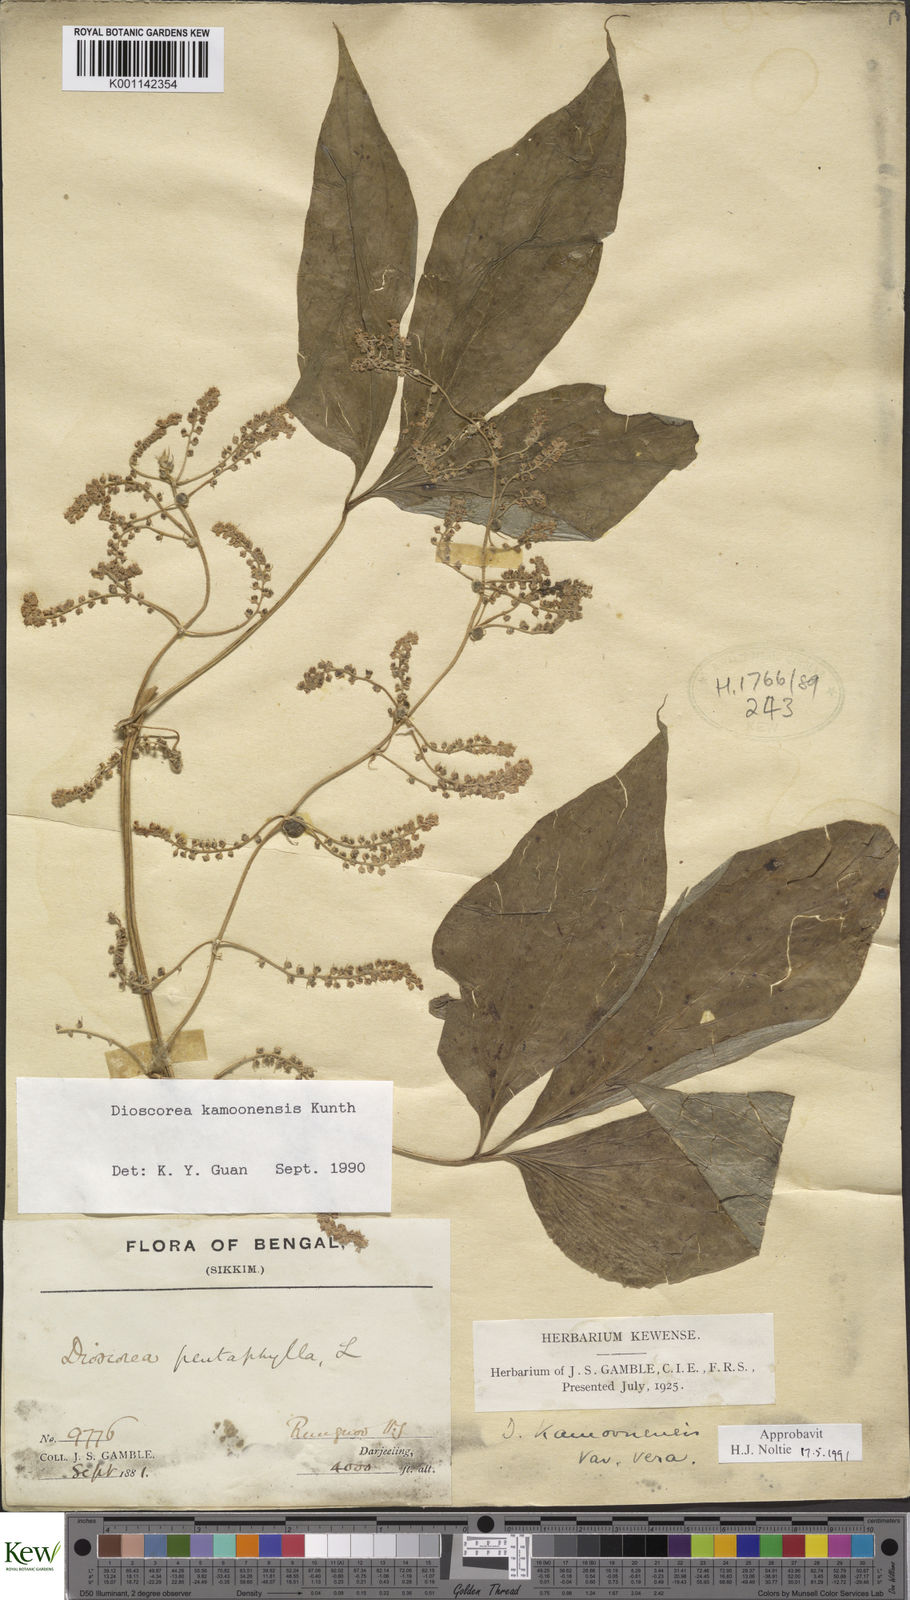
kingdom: Plantae
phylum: Tracheophyta
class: Liliopsida
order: Dioscoreales
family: Dioscoreaceae
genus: Dioscorea
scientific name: Dioscorea kamoonensis
